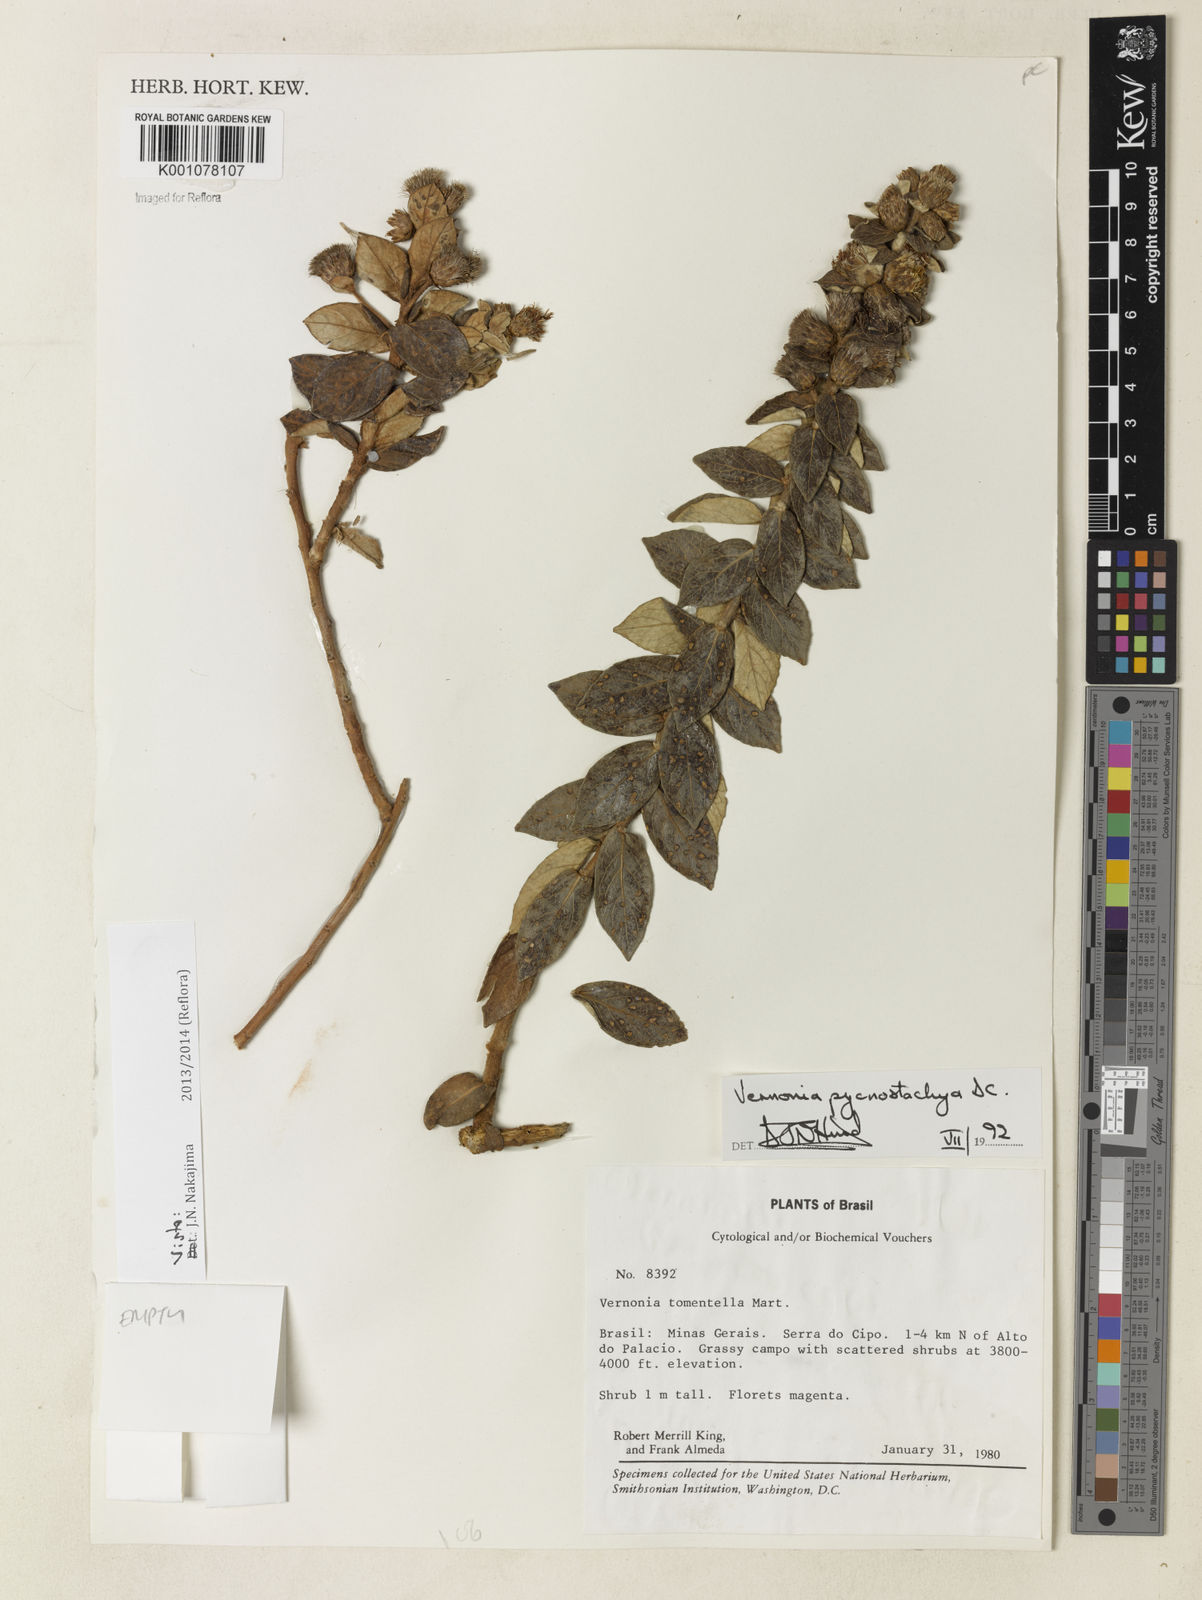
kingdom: Plantae
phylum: Tracheophyta
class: Magnoliopsida
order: Asterales
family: Asteraceae
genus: Lessingianthus
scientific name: Lessingianthus pycnostachyus
